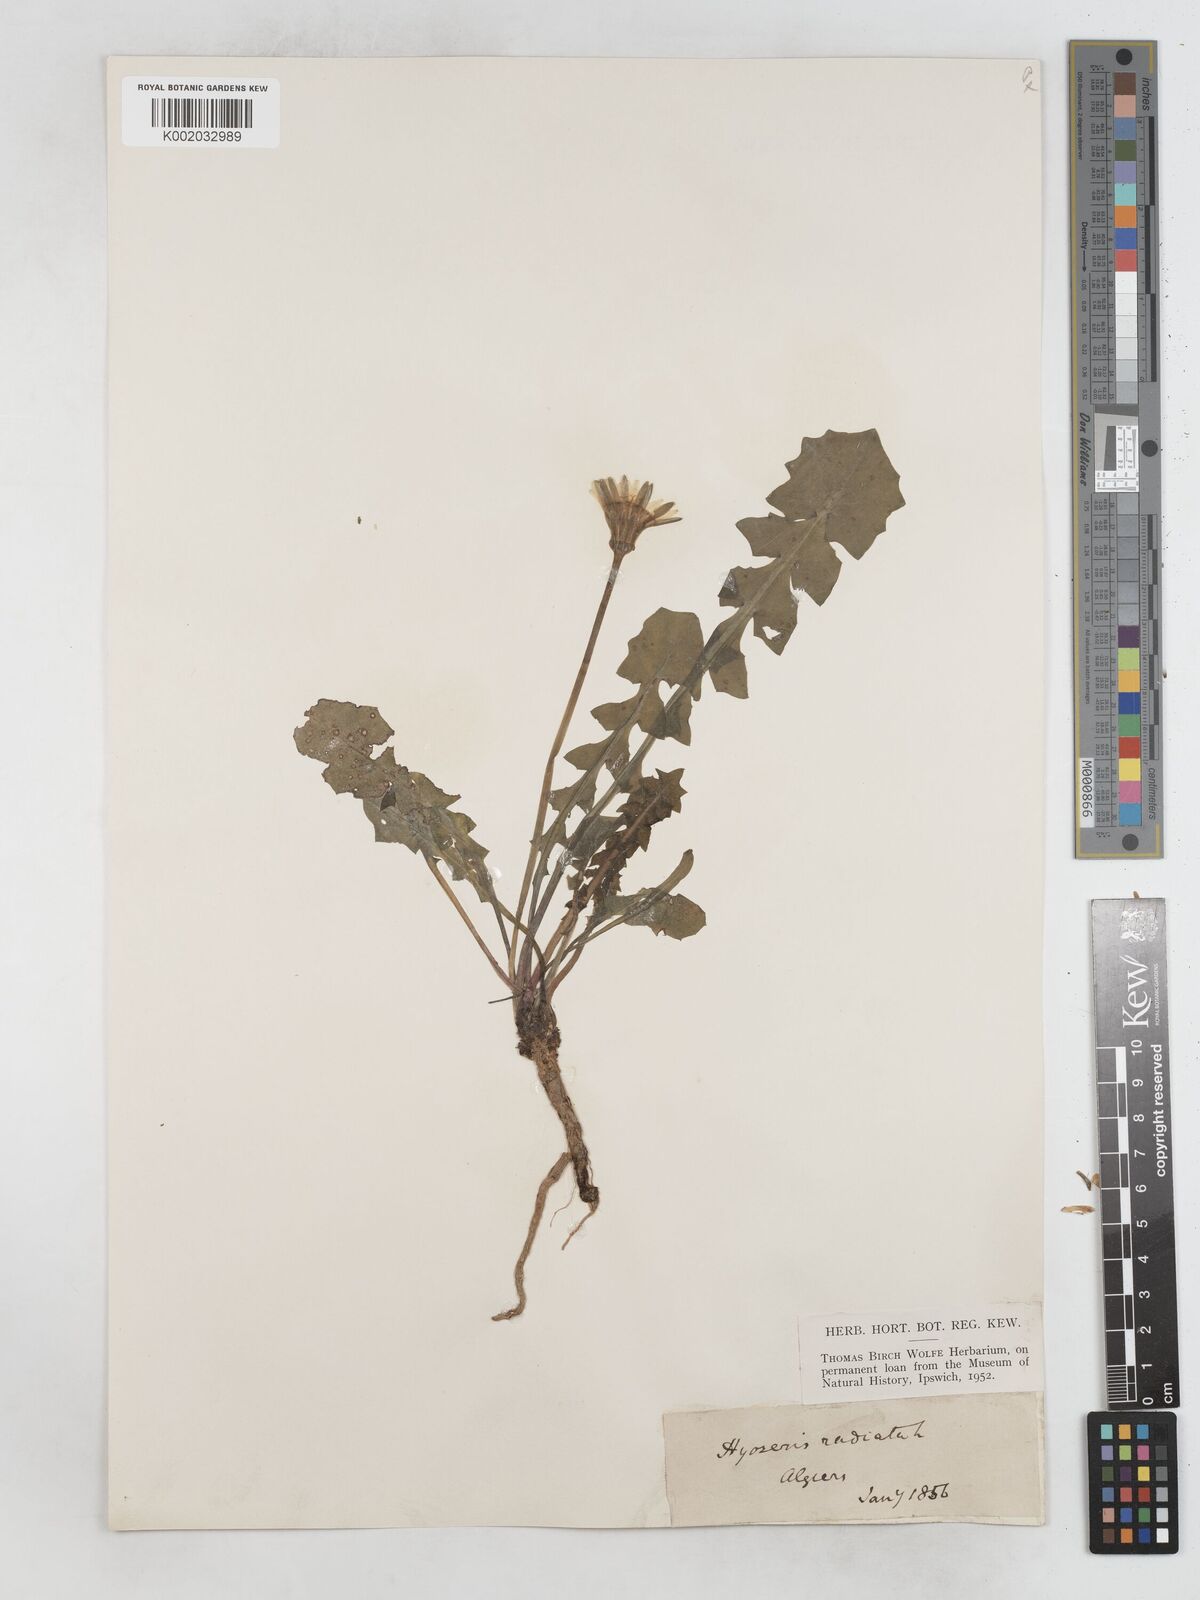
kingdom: Plantae
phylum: Tracheophyta
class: Magnoliopsida
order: Asterales
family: Asteraceae
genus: Hyoseris
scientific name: Hyoseris radiata
